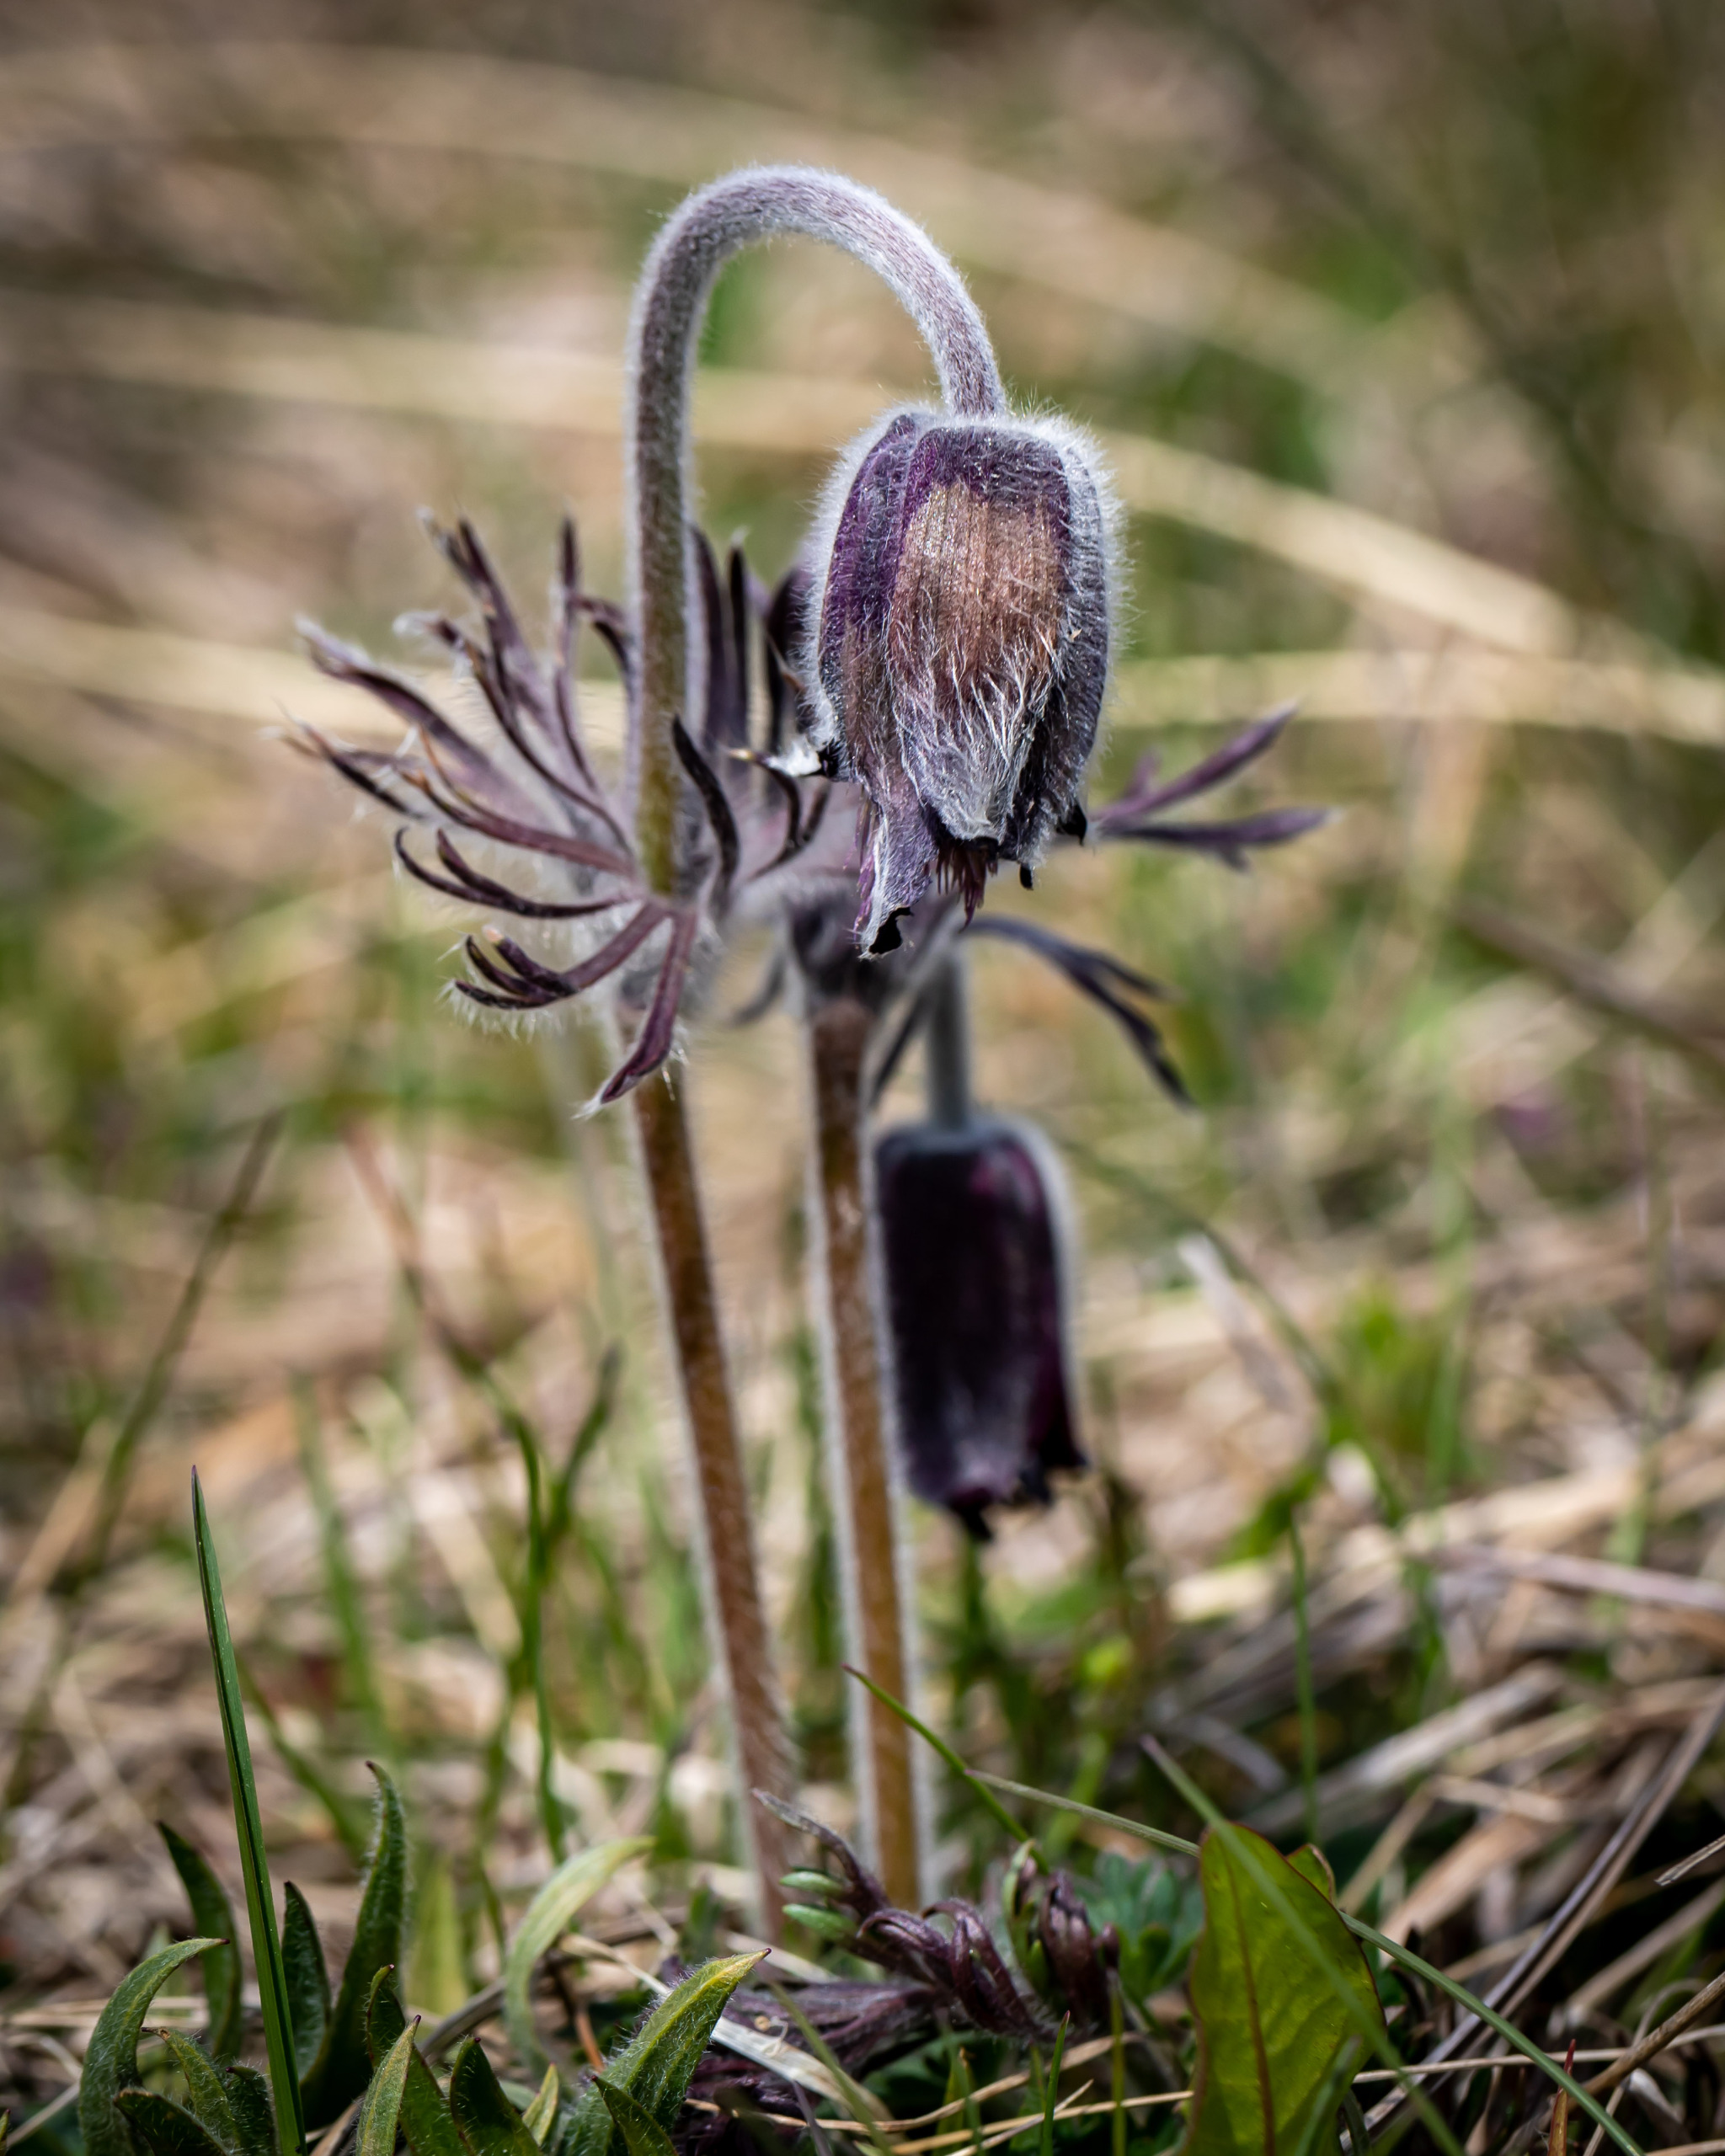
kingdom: Plantae
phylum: Tracheophyta
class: Magnoliopsida
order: Ranunculales
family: Ranunculaceae
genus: Pulsatilla
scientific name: Pulsatilla pratensis
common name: Nikkende kobjælde
